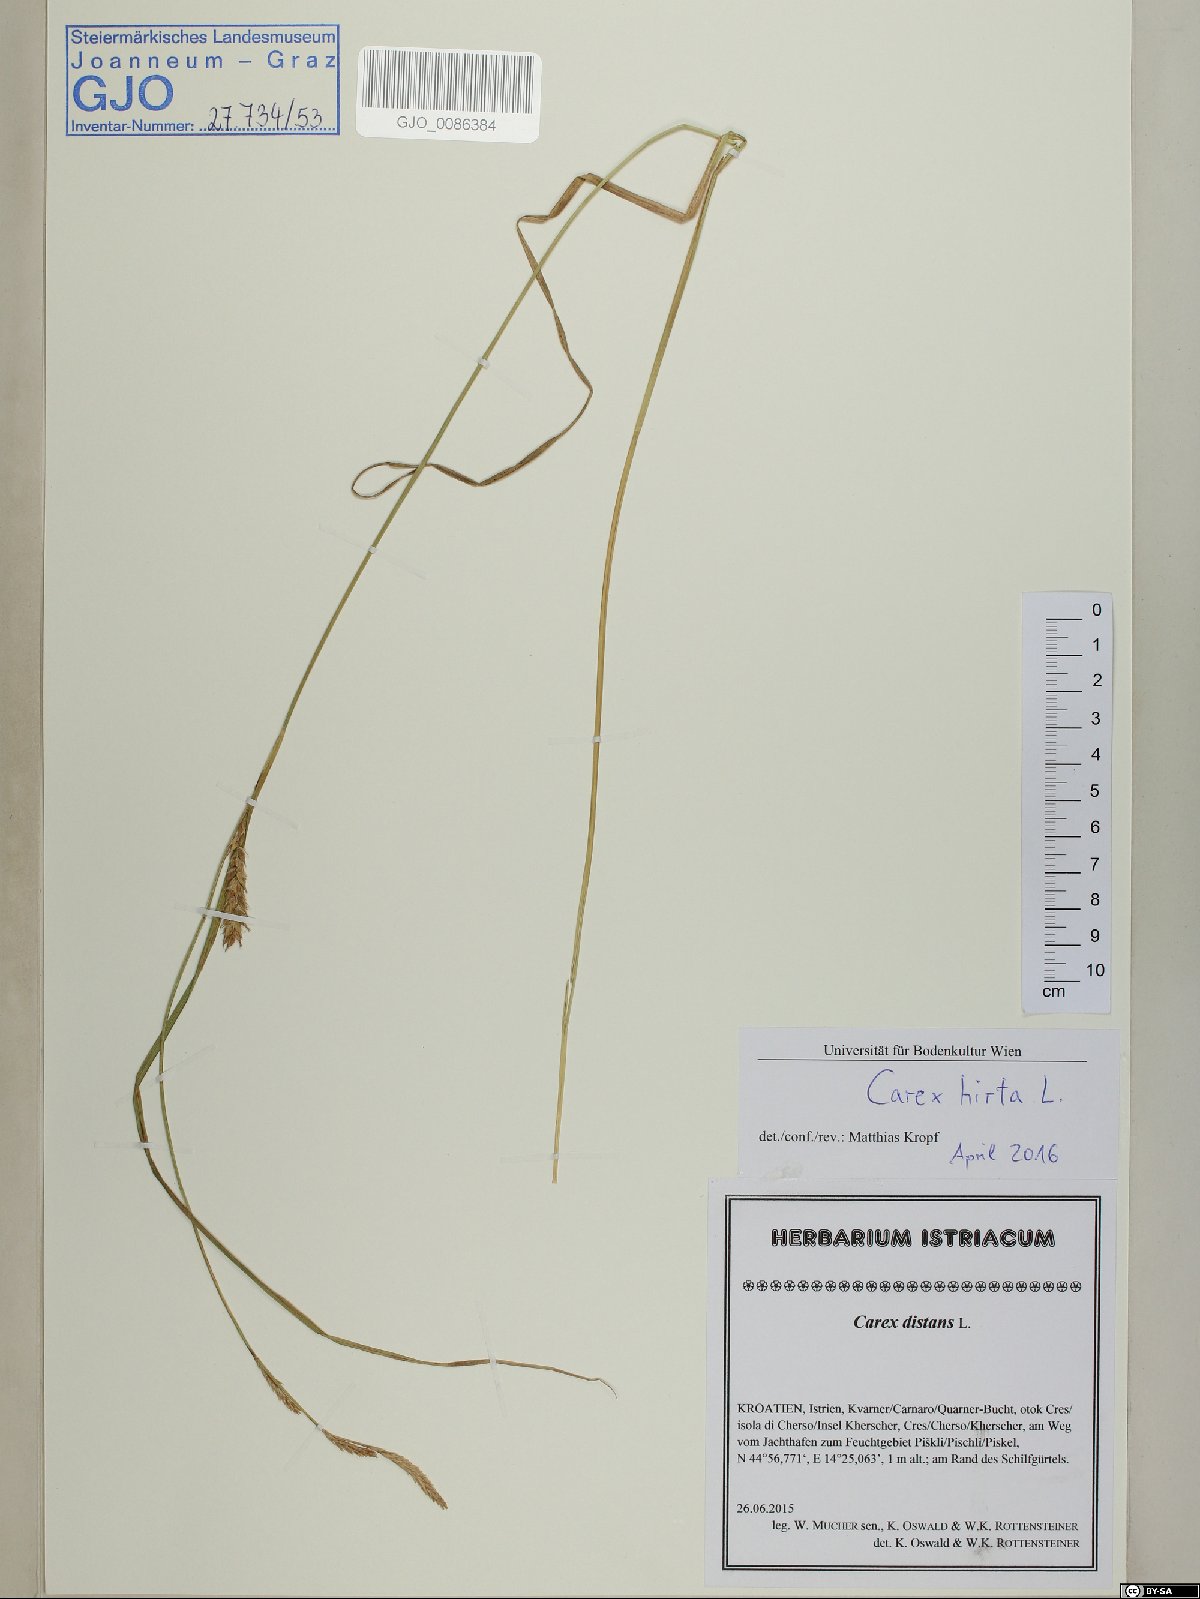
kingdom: Plantae
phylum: Tracheophyta
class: Liliopsida
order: Poales
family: Cyperaceae
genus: Carex
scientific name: Carex hirta
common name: Hairy sedge
